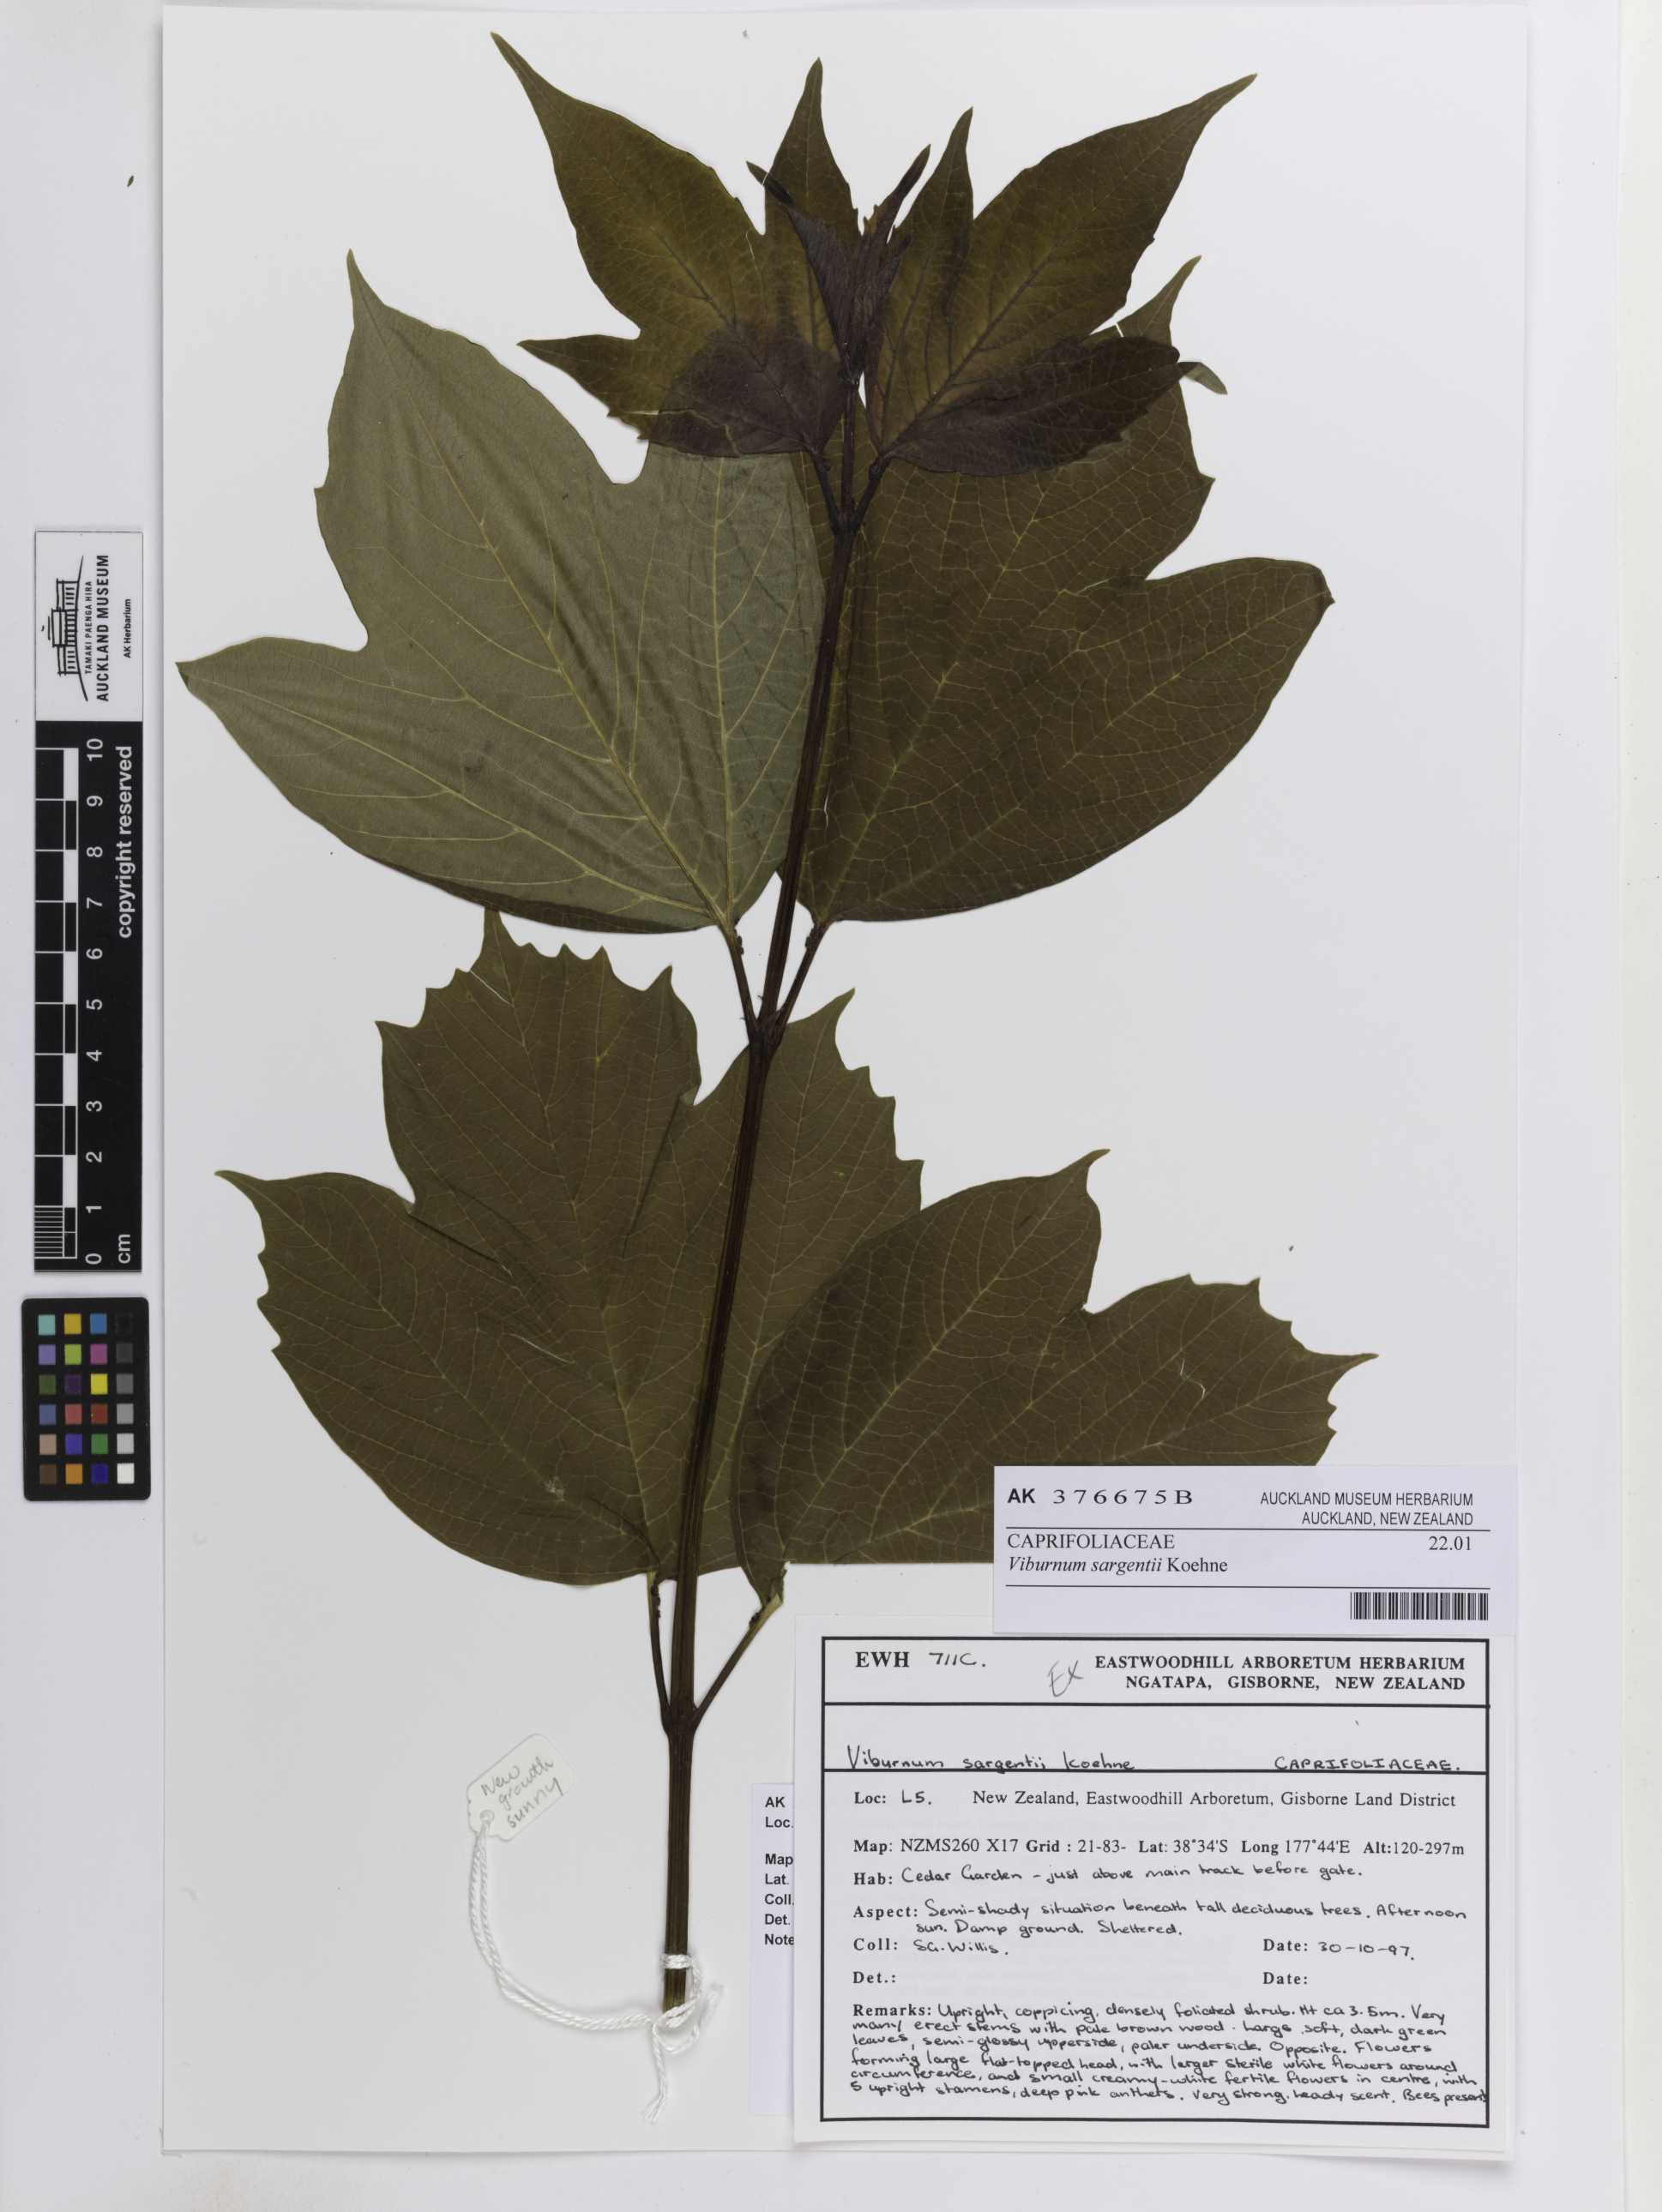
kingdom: Plantae
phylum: Tracheophyta
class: Magnoliopsida
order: Dipsacales
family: Viburnaceae
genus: Viburnum
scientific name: Viburnum sargentii
